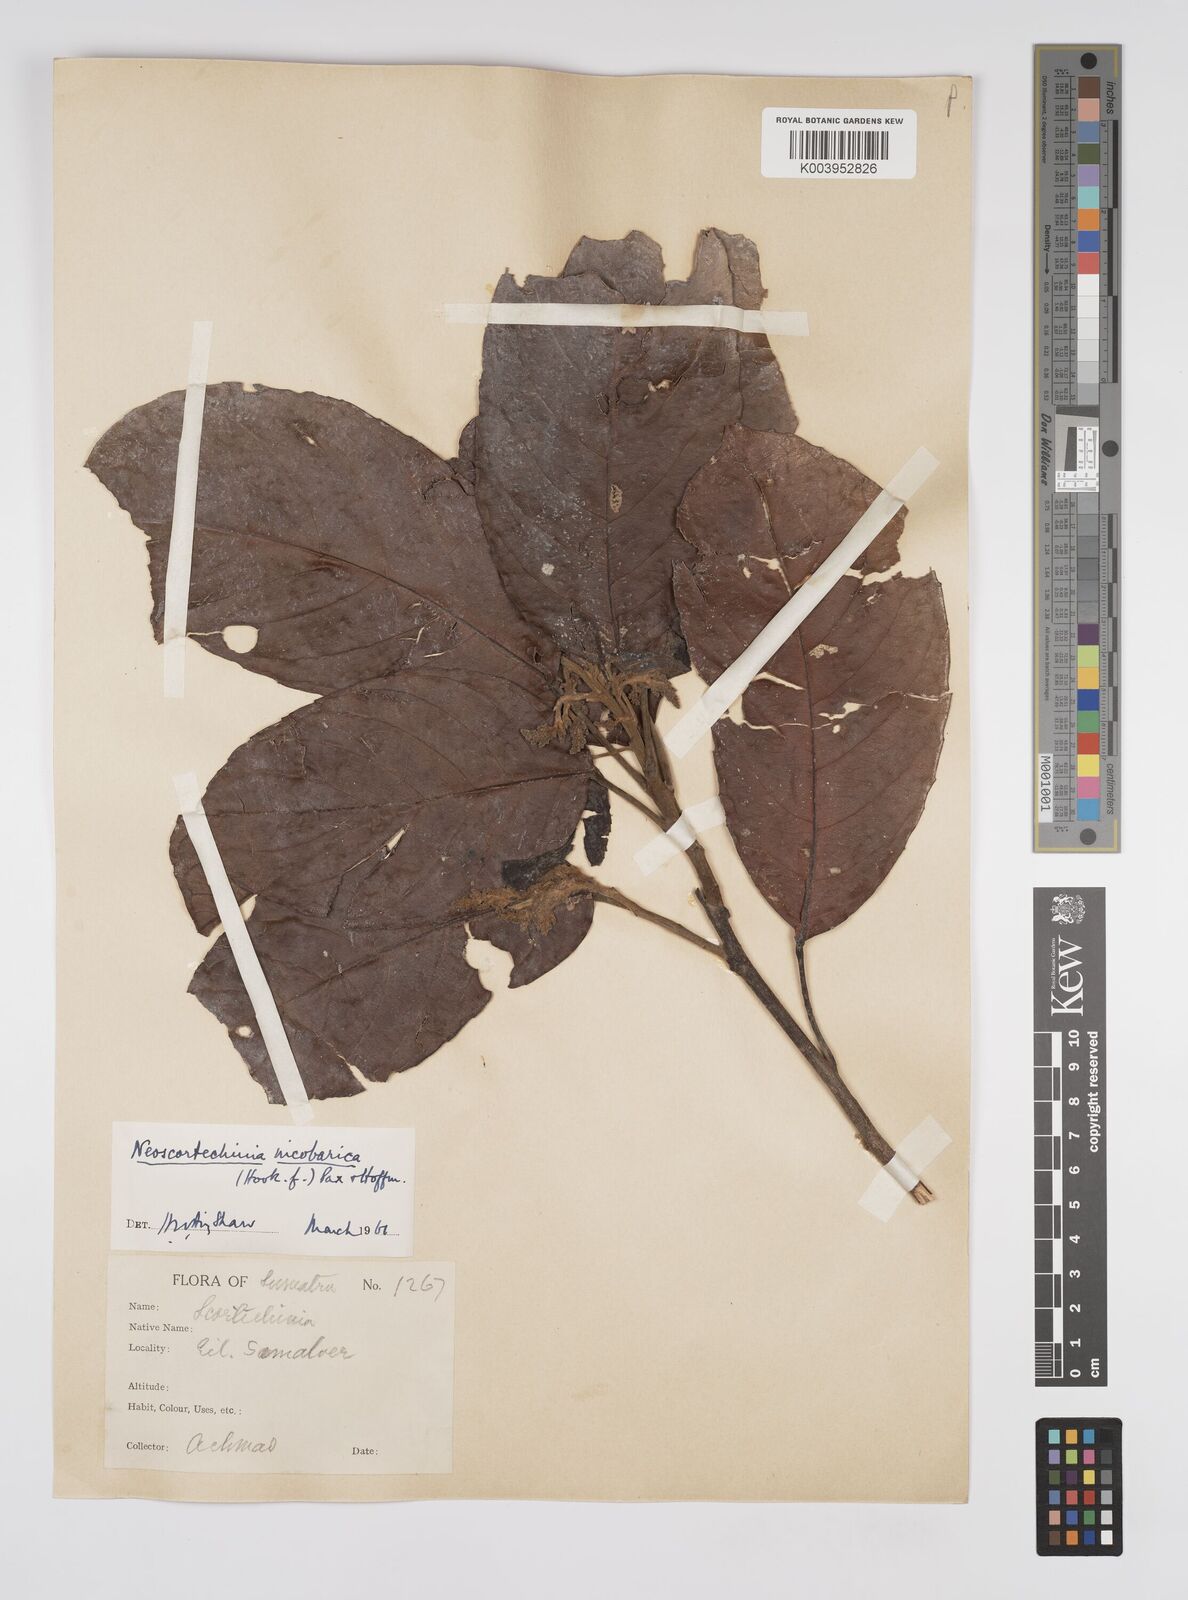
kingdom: Plantae
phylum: Tracheophyta
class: Magnoliopsida
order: Malpighiales
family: Euphorbiaceae
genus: Neoscortechinia
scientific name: Neoscortechinia nicobarica
